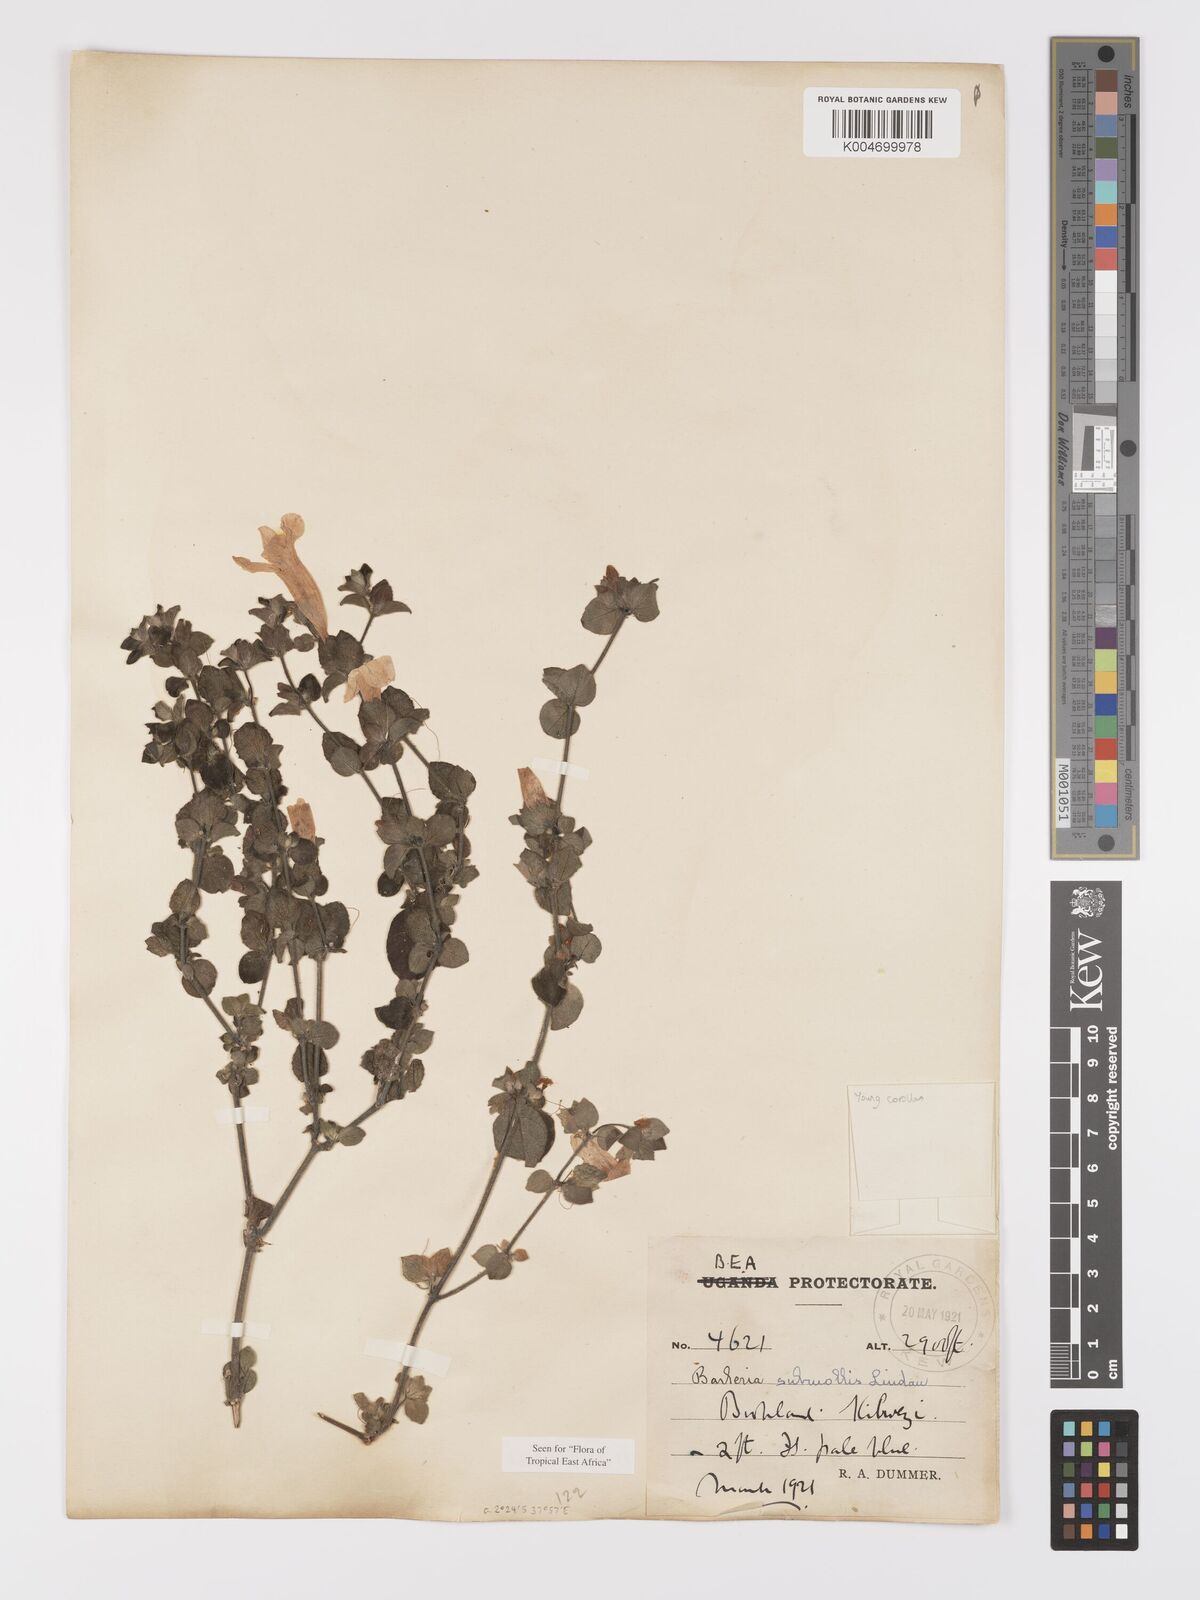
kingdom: Plantae
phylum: Tracheophyta
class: Magnoliopsida
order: Lamiales
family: Acanthaceae
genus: Barleria
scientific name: Barleria submollis
